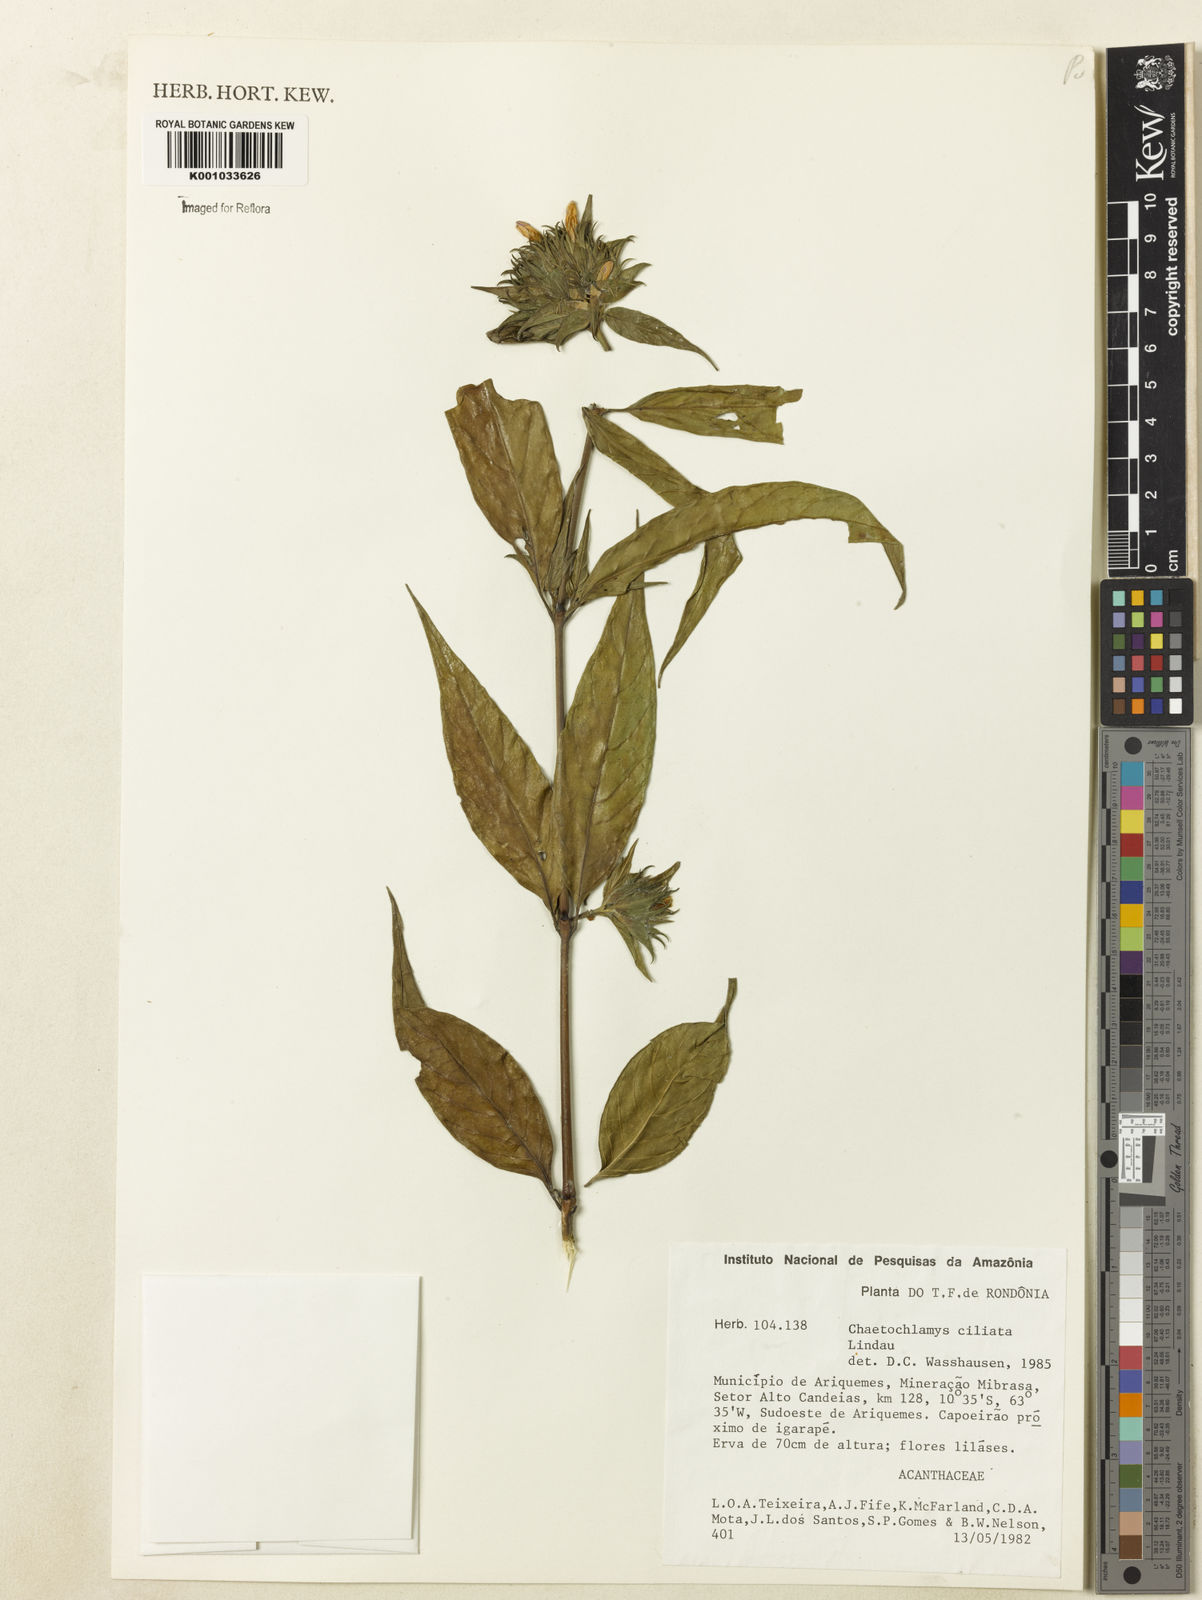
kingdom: Plantae
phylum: Tracheophyta
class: Magnoliopsida
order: Lamiales
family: Acanthaceae
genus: Justicia
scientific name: Justicia sprucei
